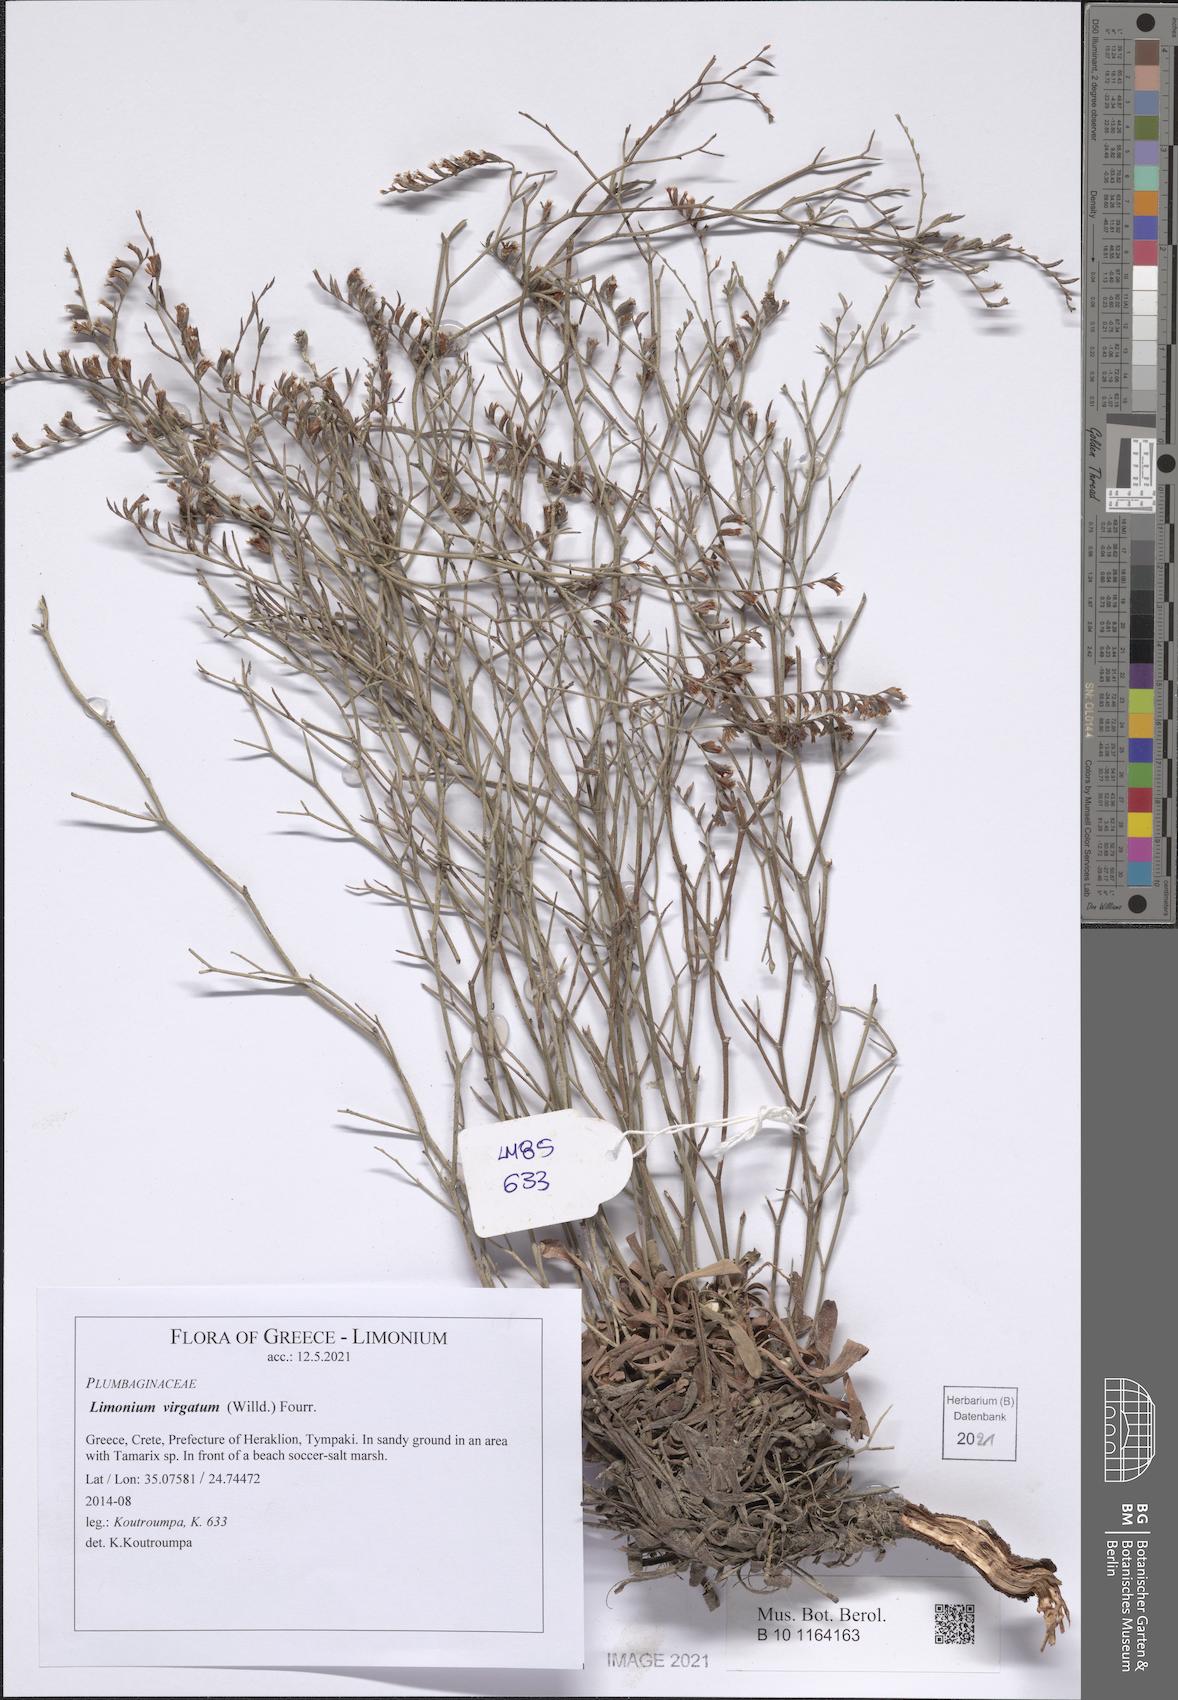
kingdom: Plantae
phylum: Tracheophyta
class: Magnoliopsida
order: Caryophyllales
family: Plumbaginaceae
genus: Limonium
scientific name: Limonium virgatum
